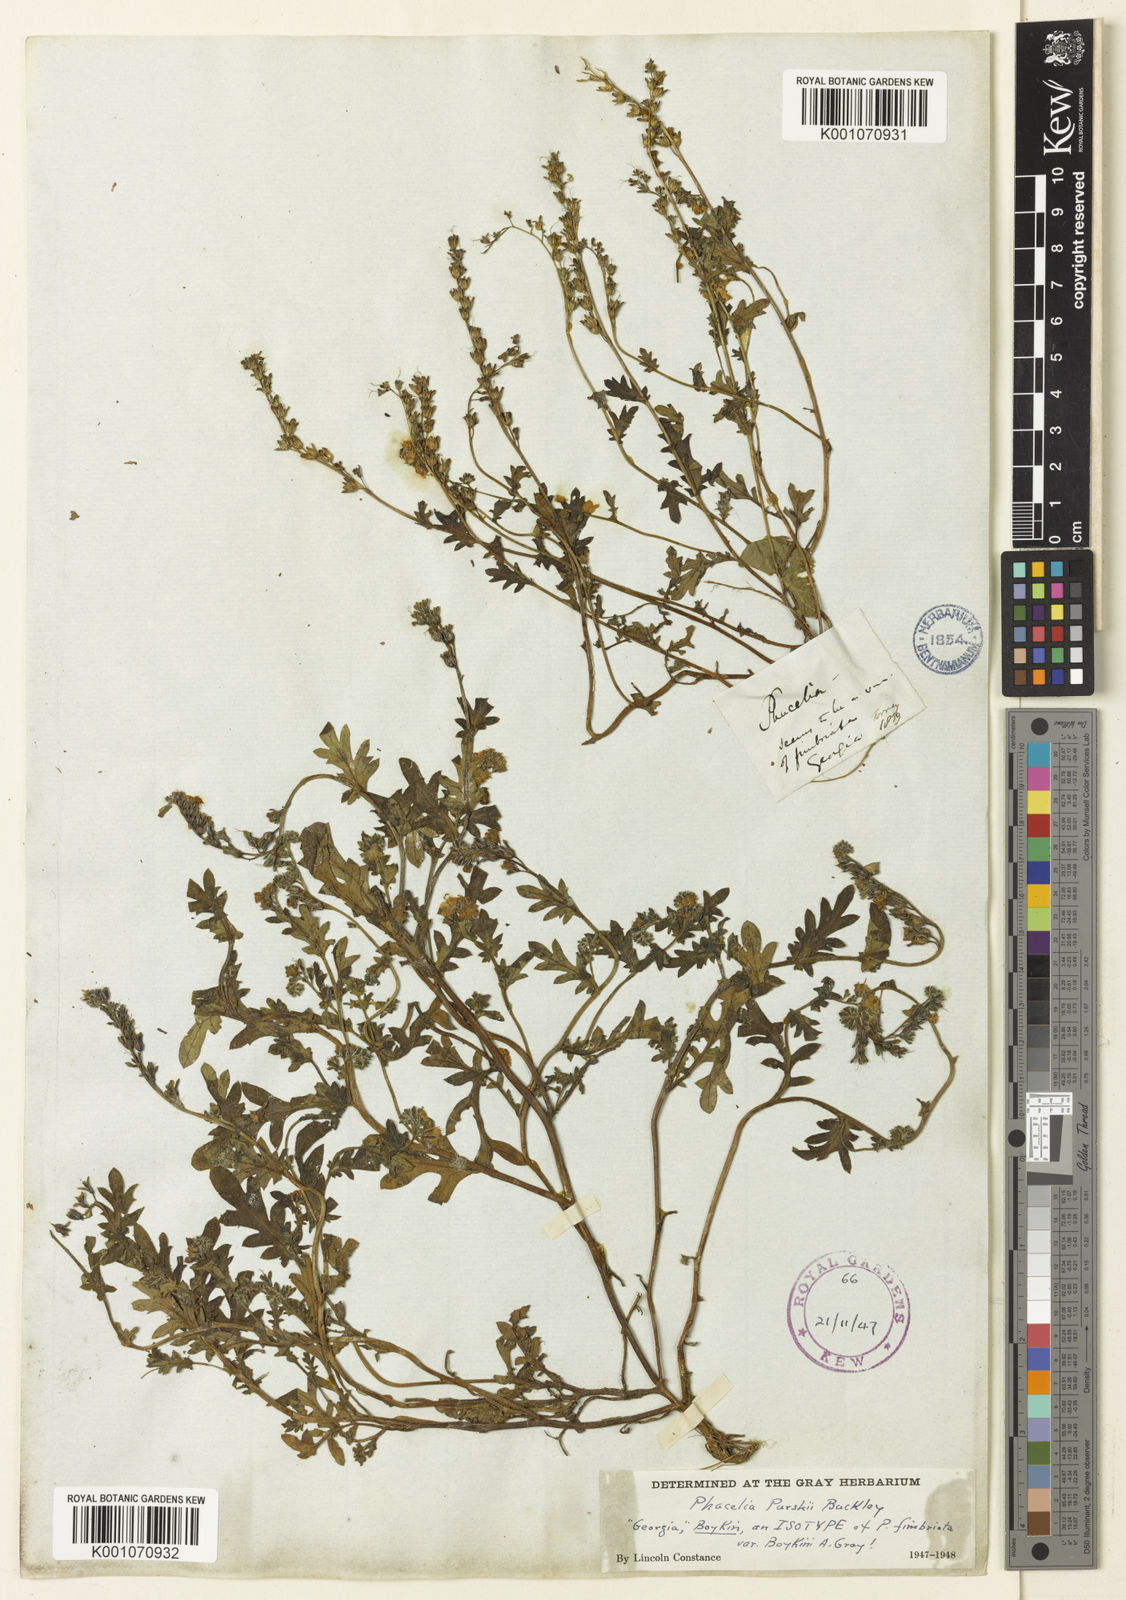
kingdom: Plantae
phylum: Tracheophyta
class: Magnoliopsida
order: Boraginales
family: Hydrophyllaceae
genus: Phacelia
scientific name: Phacelia purshii
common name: Miami-mist
